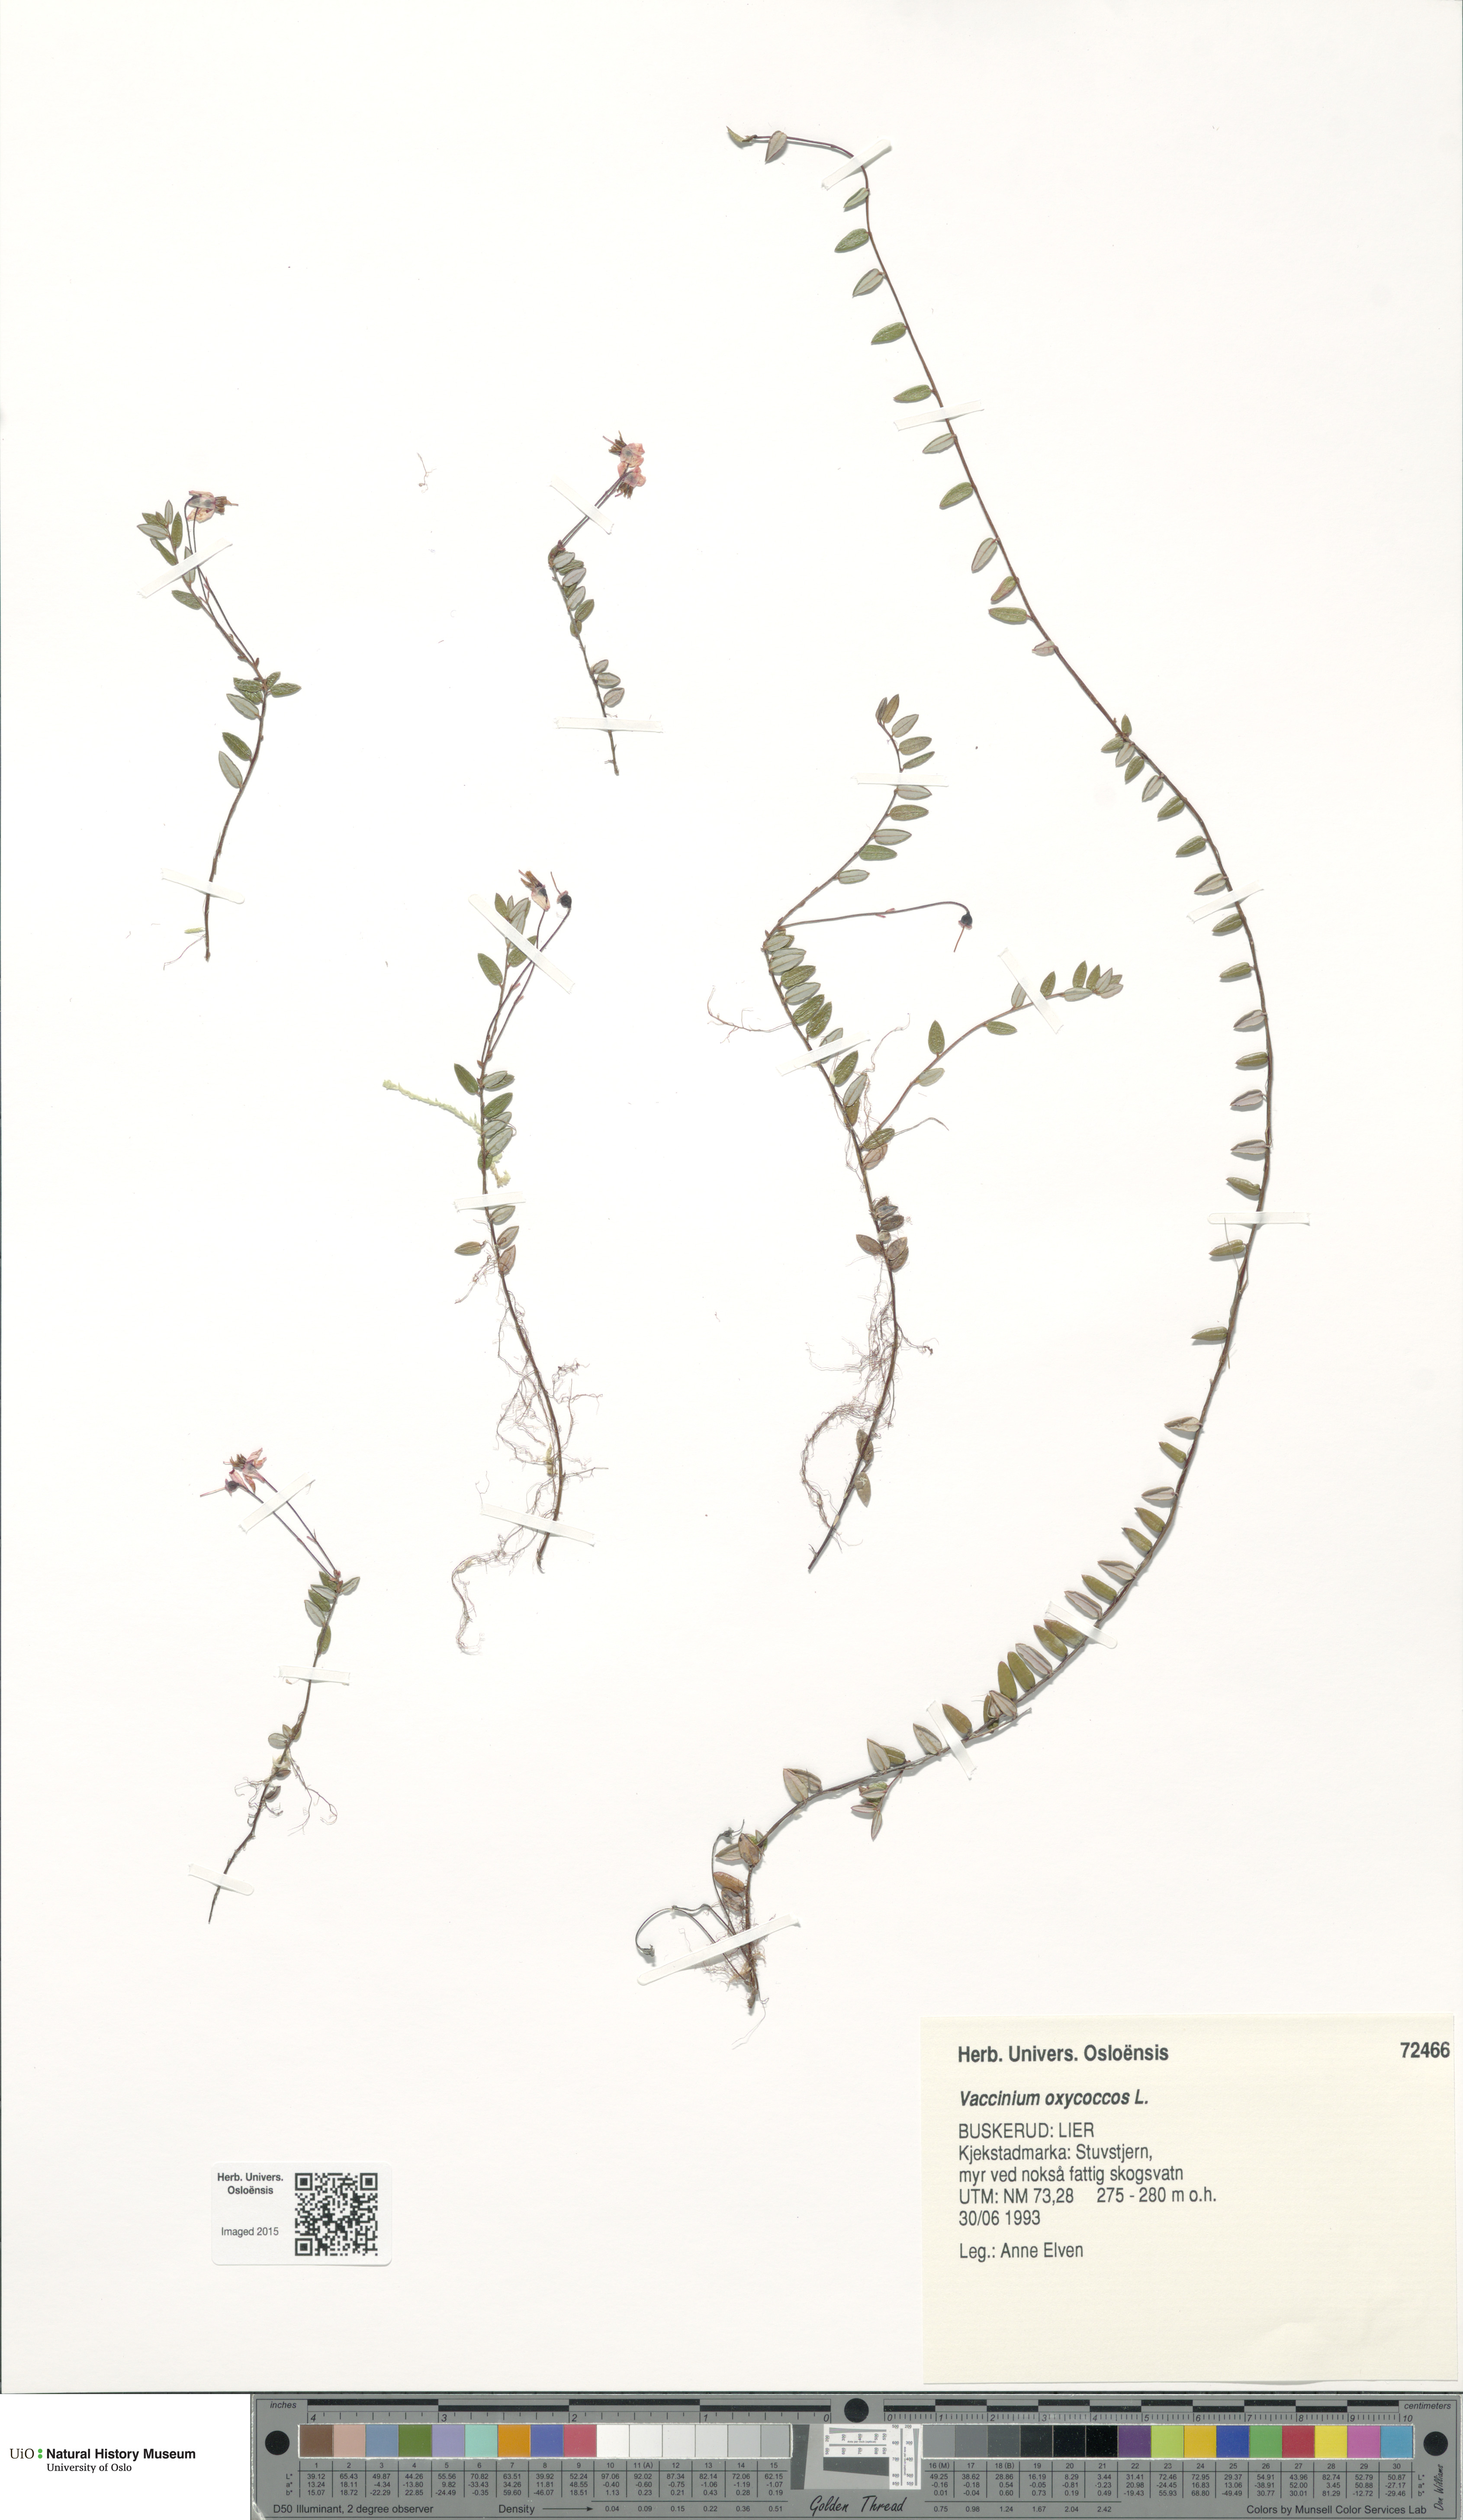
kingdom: Plantae
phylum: Tracheophyta
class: Magnoliopsida
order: Ericales
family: Ericaceae
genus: Vaccinium
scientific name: Vaccinium oxycoccos
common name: Cranberry
